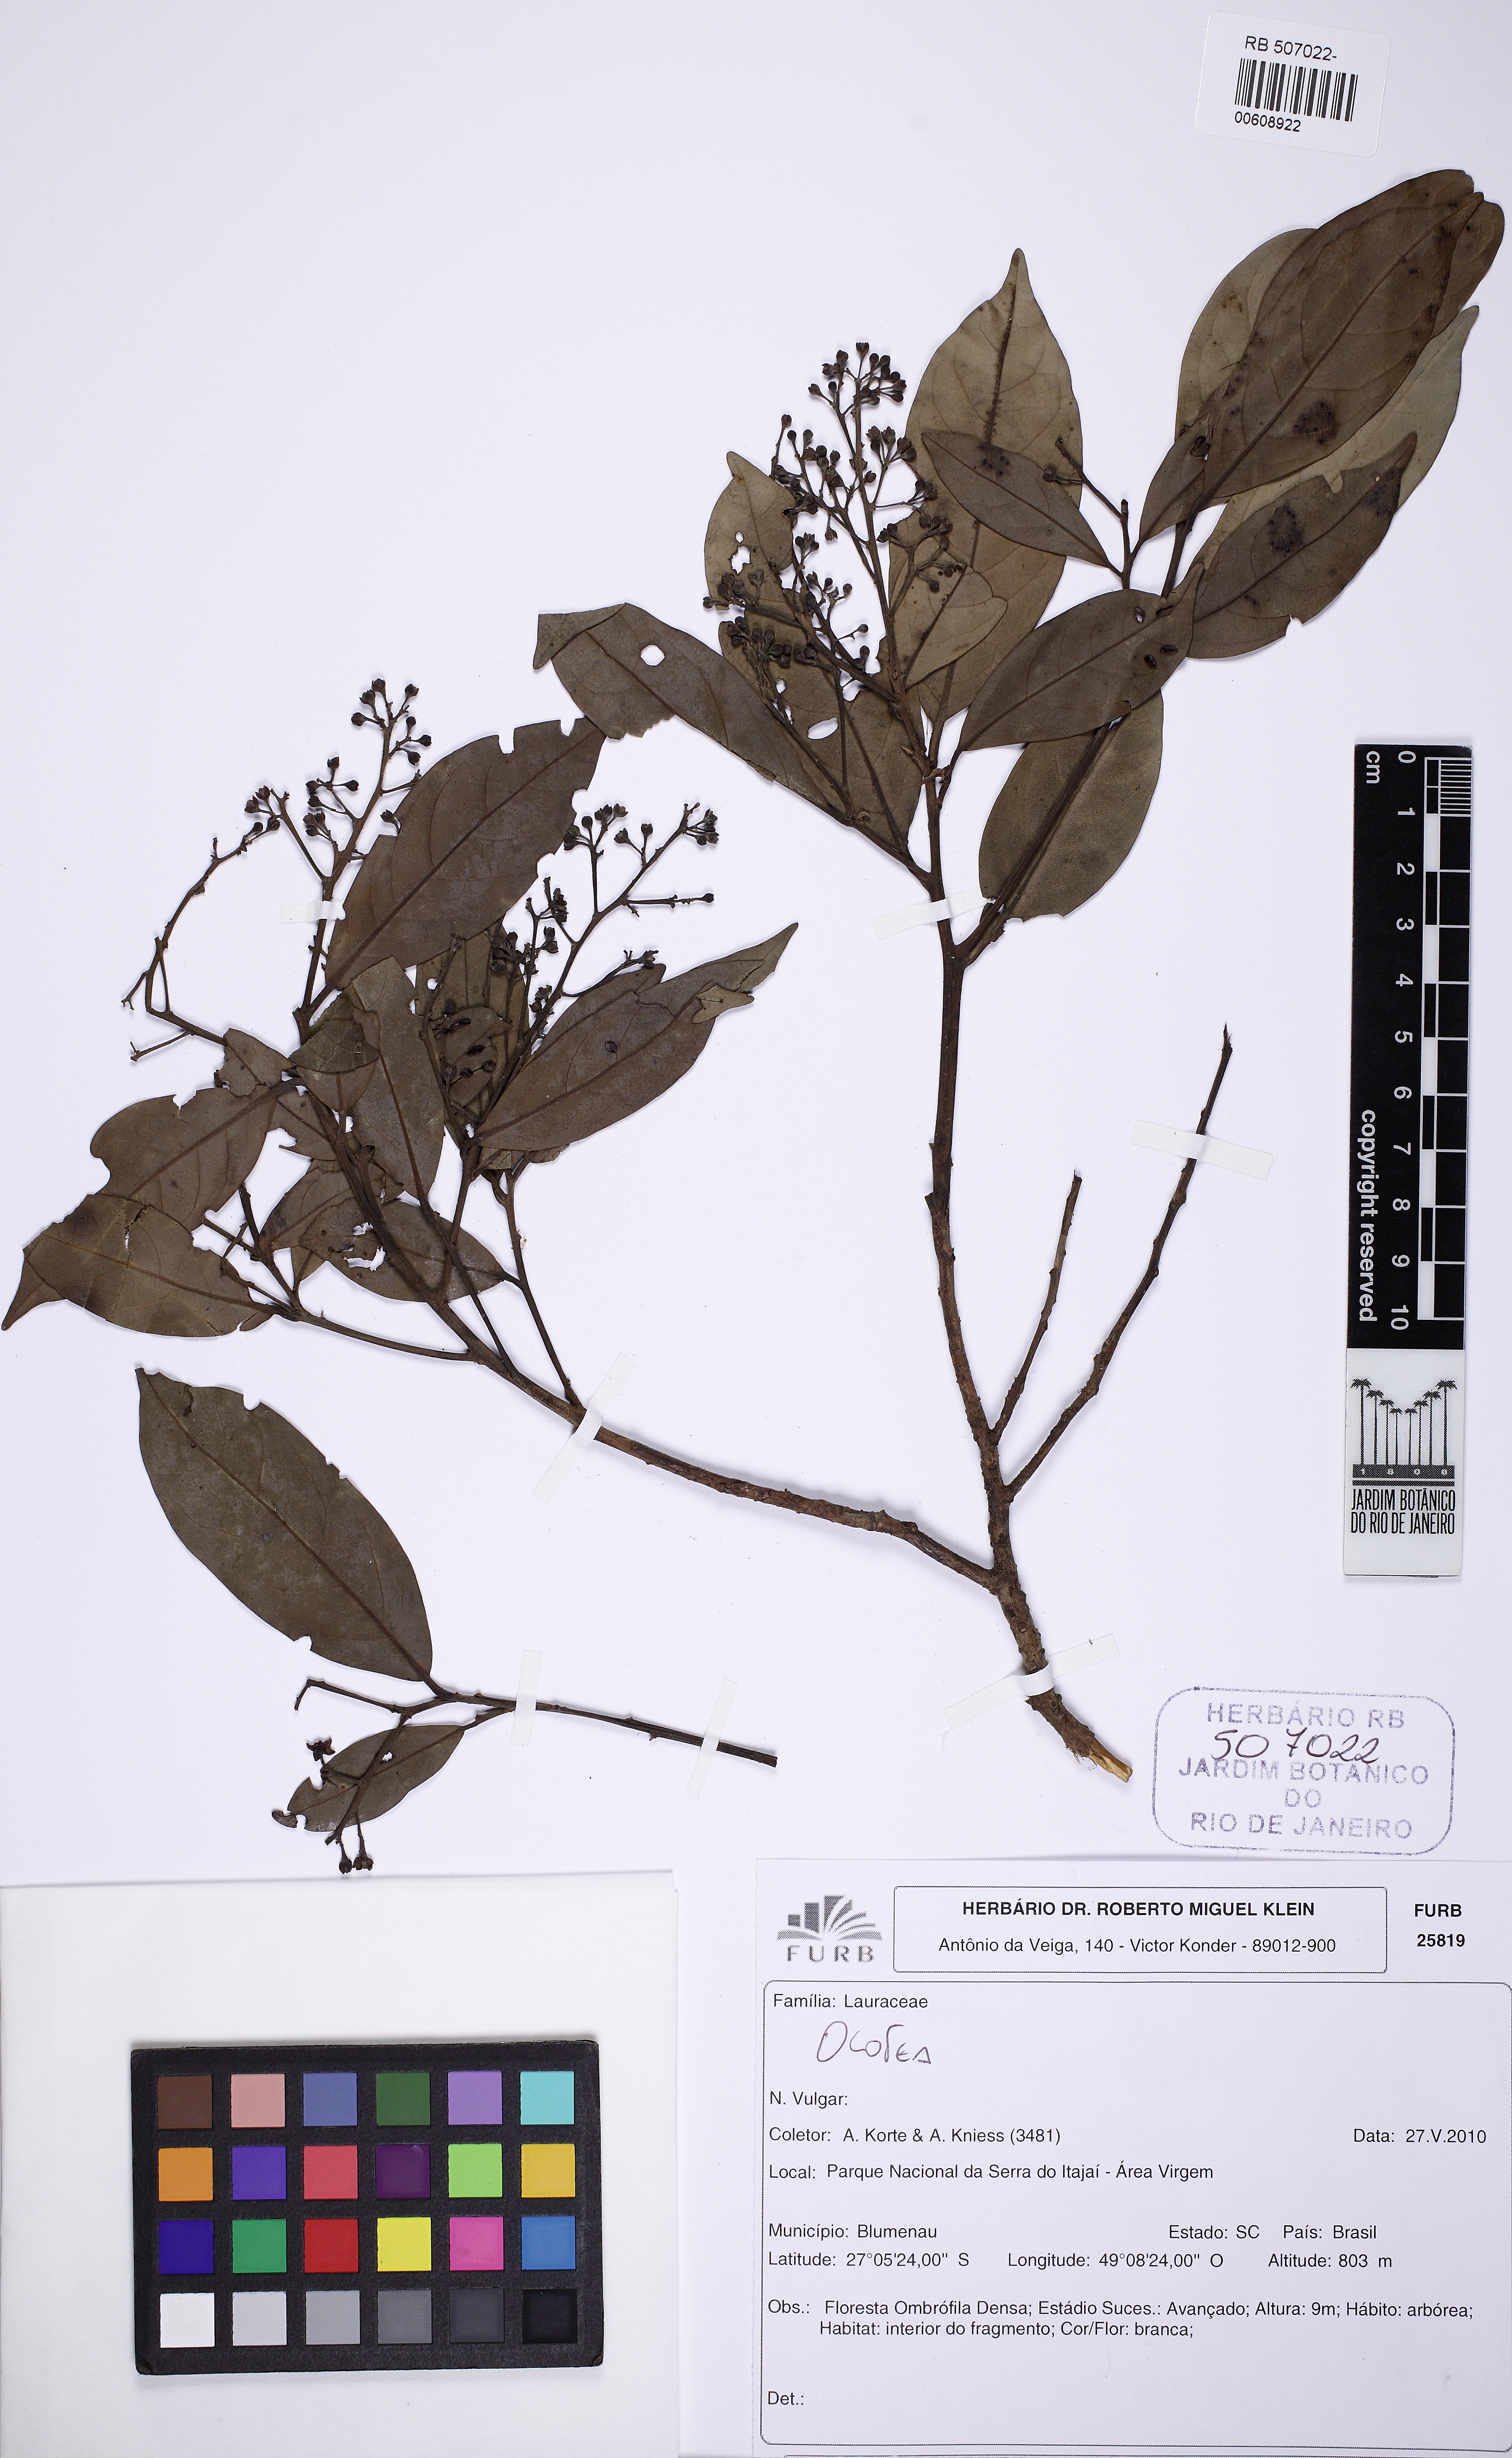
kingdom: Plantae
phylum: Tracheophyta
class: Magnoliopsida
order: Laurales
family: Lauraceae
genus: Ocotea
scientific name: Ocotea lancifolia
